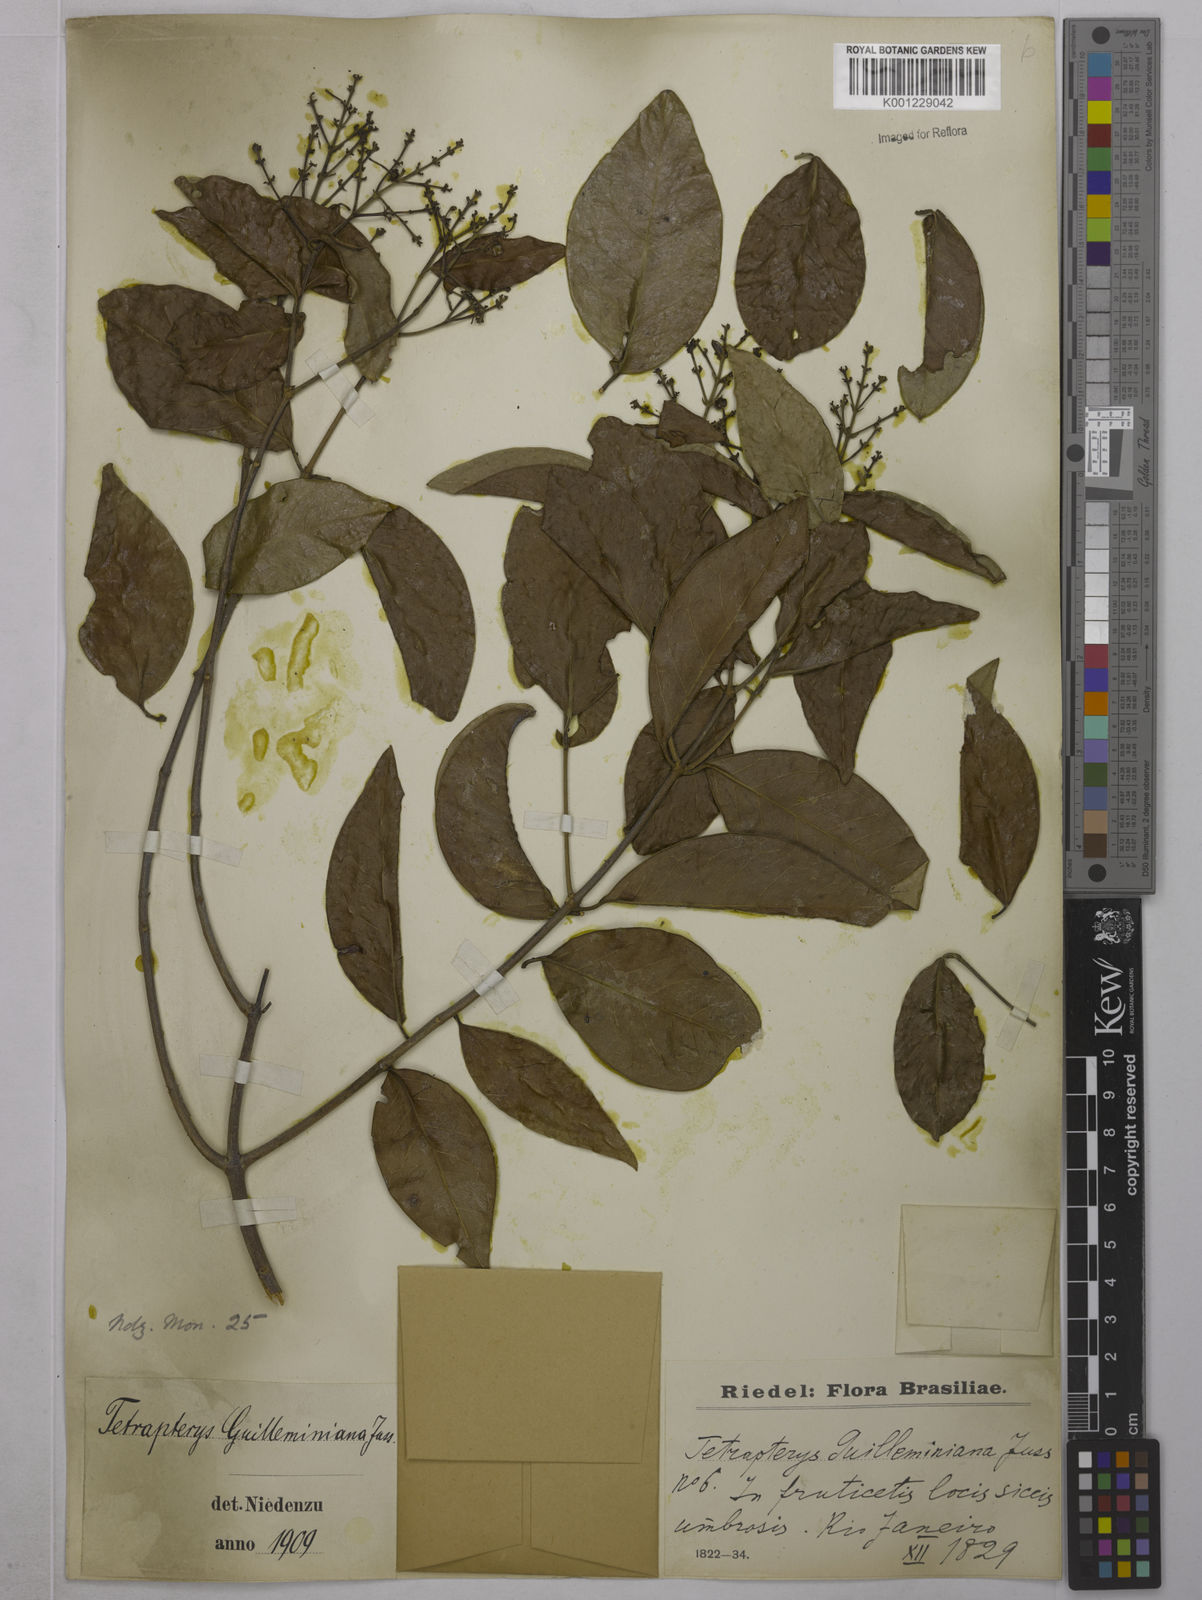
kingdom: Plantae
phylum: Tracheophyta
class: Magnoliopsida
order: Malpighiales
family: Malpighiaceae
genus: Niedenzuella
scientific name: Niedenzuella acutifolia
